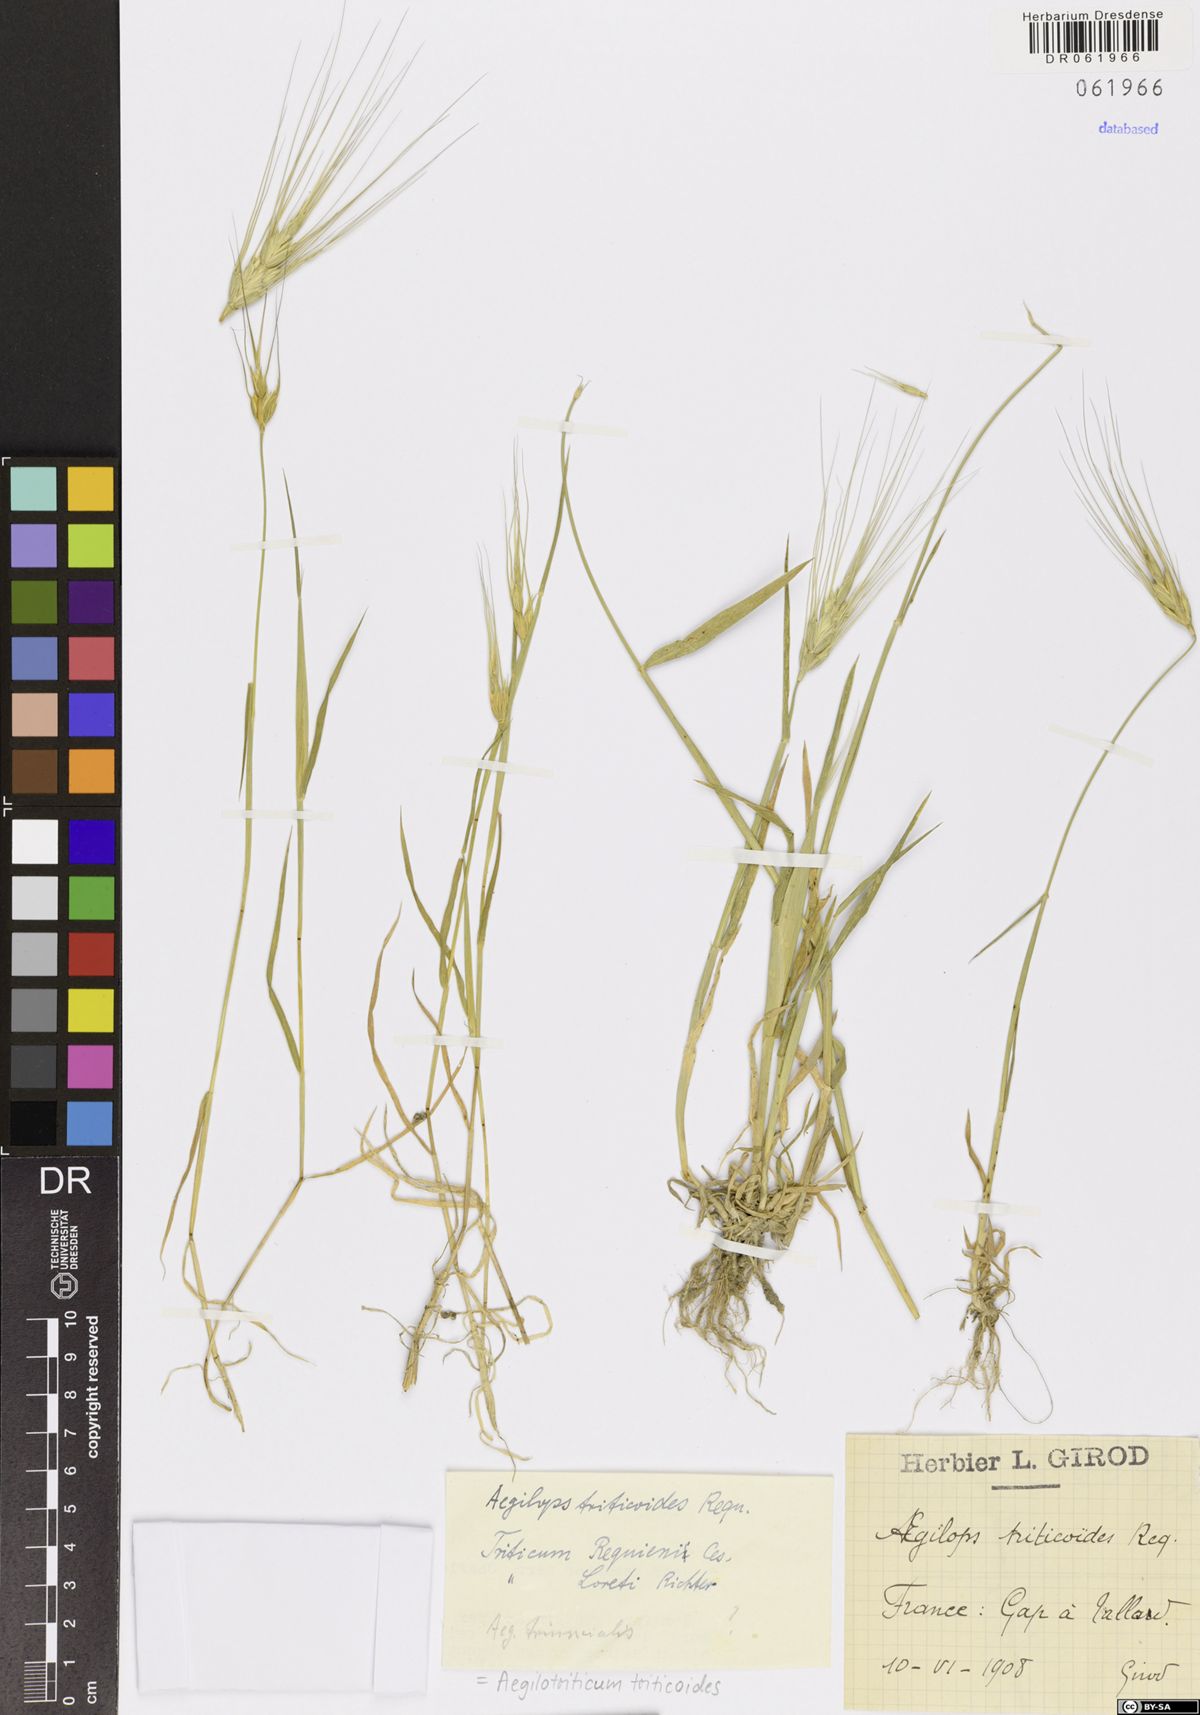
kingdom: Plantae
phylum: Tracheophyta
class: Liliopsida
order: Poales
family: Poaceae
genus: Aegilotriticum
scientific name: Aegilotriticum triticoides
